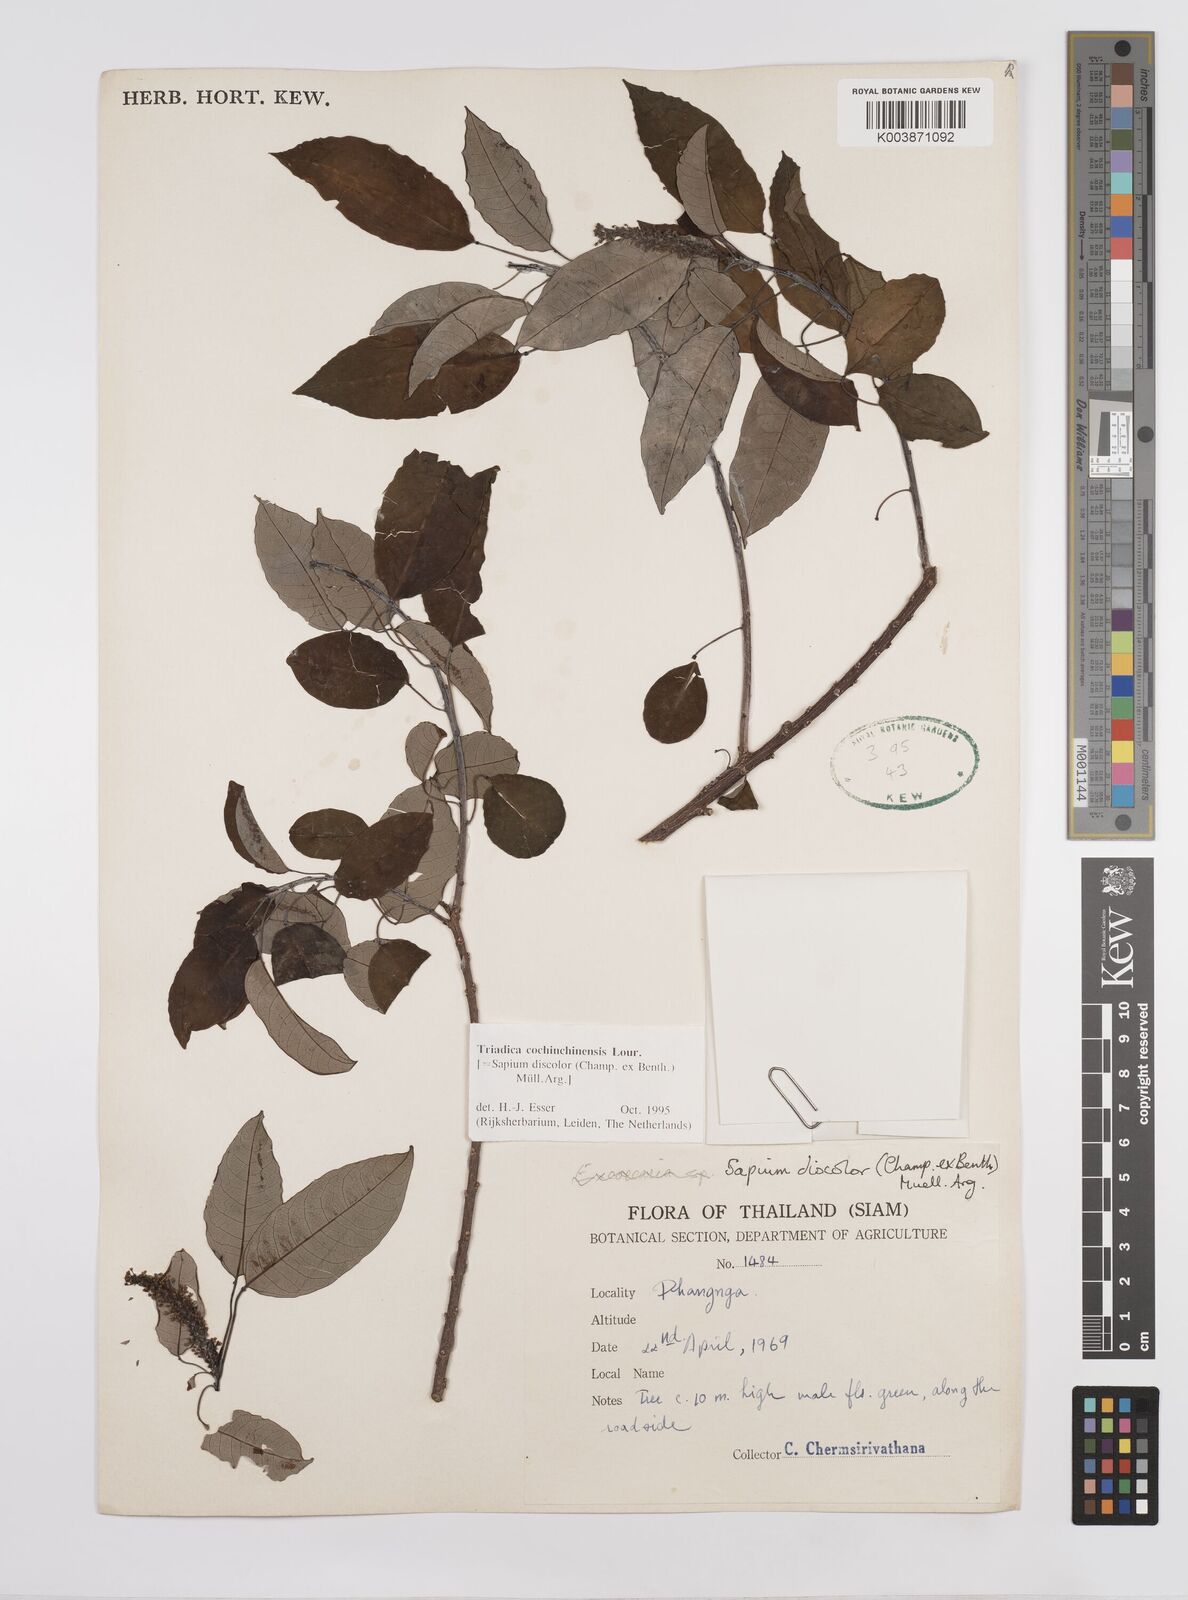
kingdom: Plantae
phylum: Tracheophyta
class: Magnoliopsida
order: Malpighiales
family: Euphorbiaceae
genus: Triadica
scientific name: Triadica cochinchinensis
